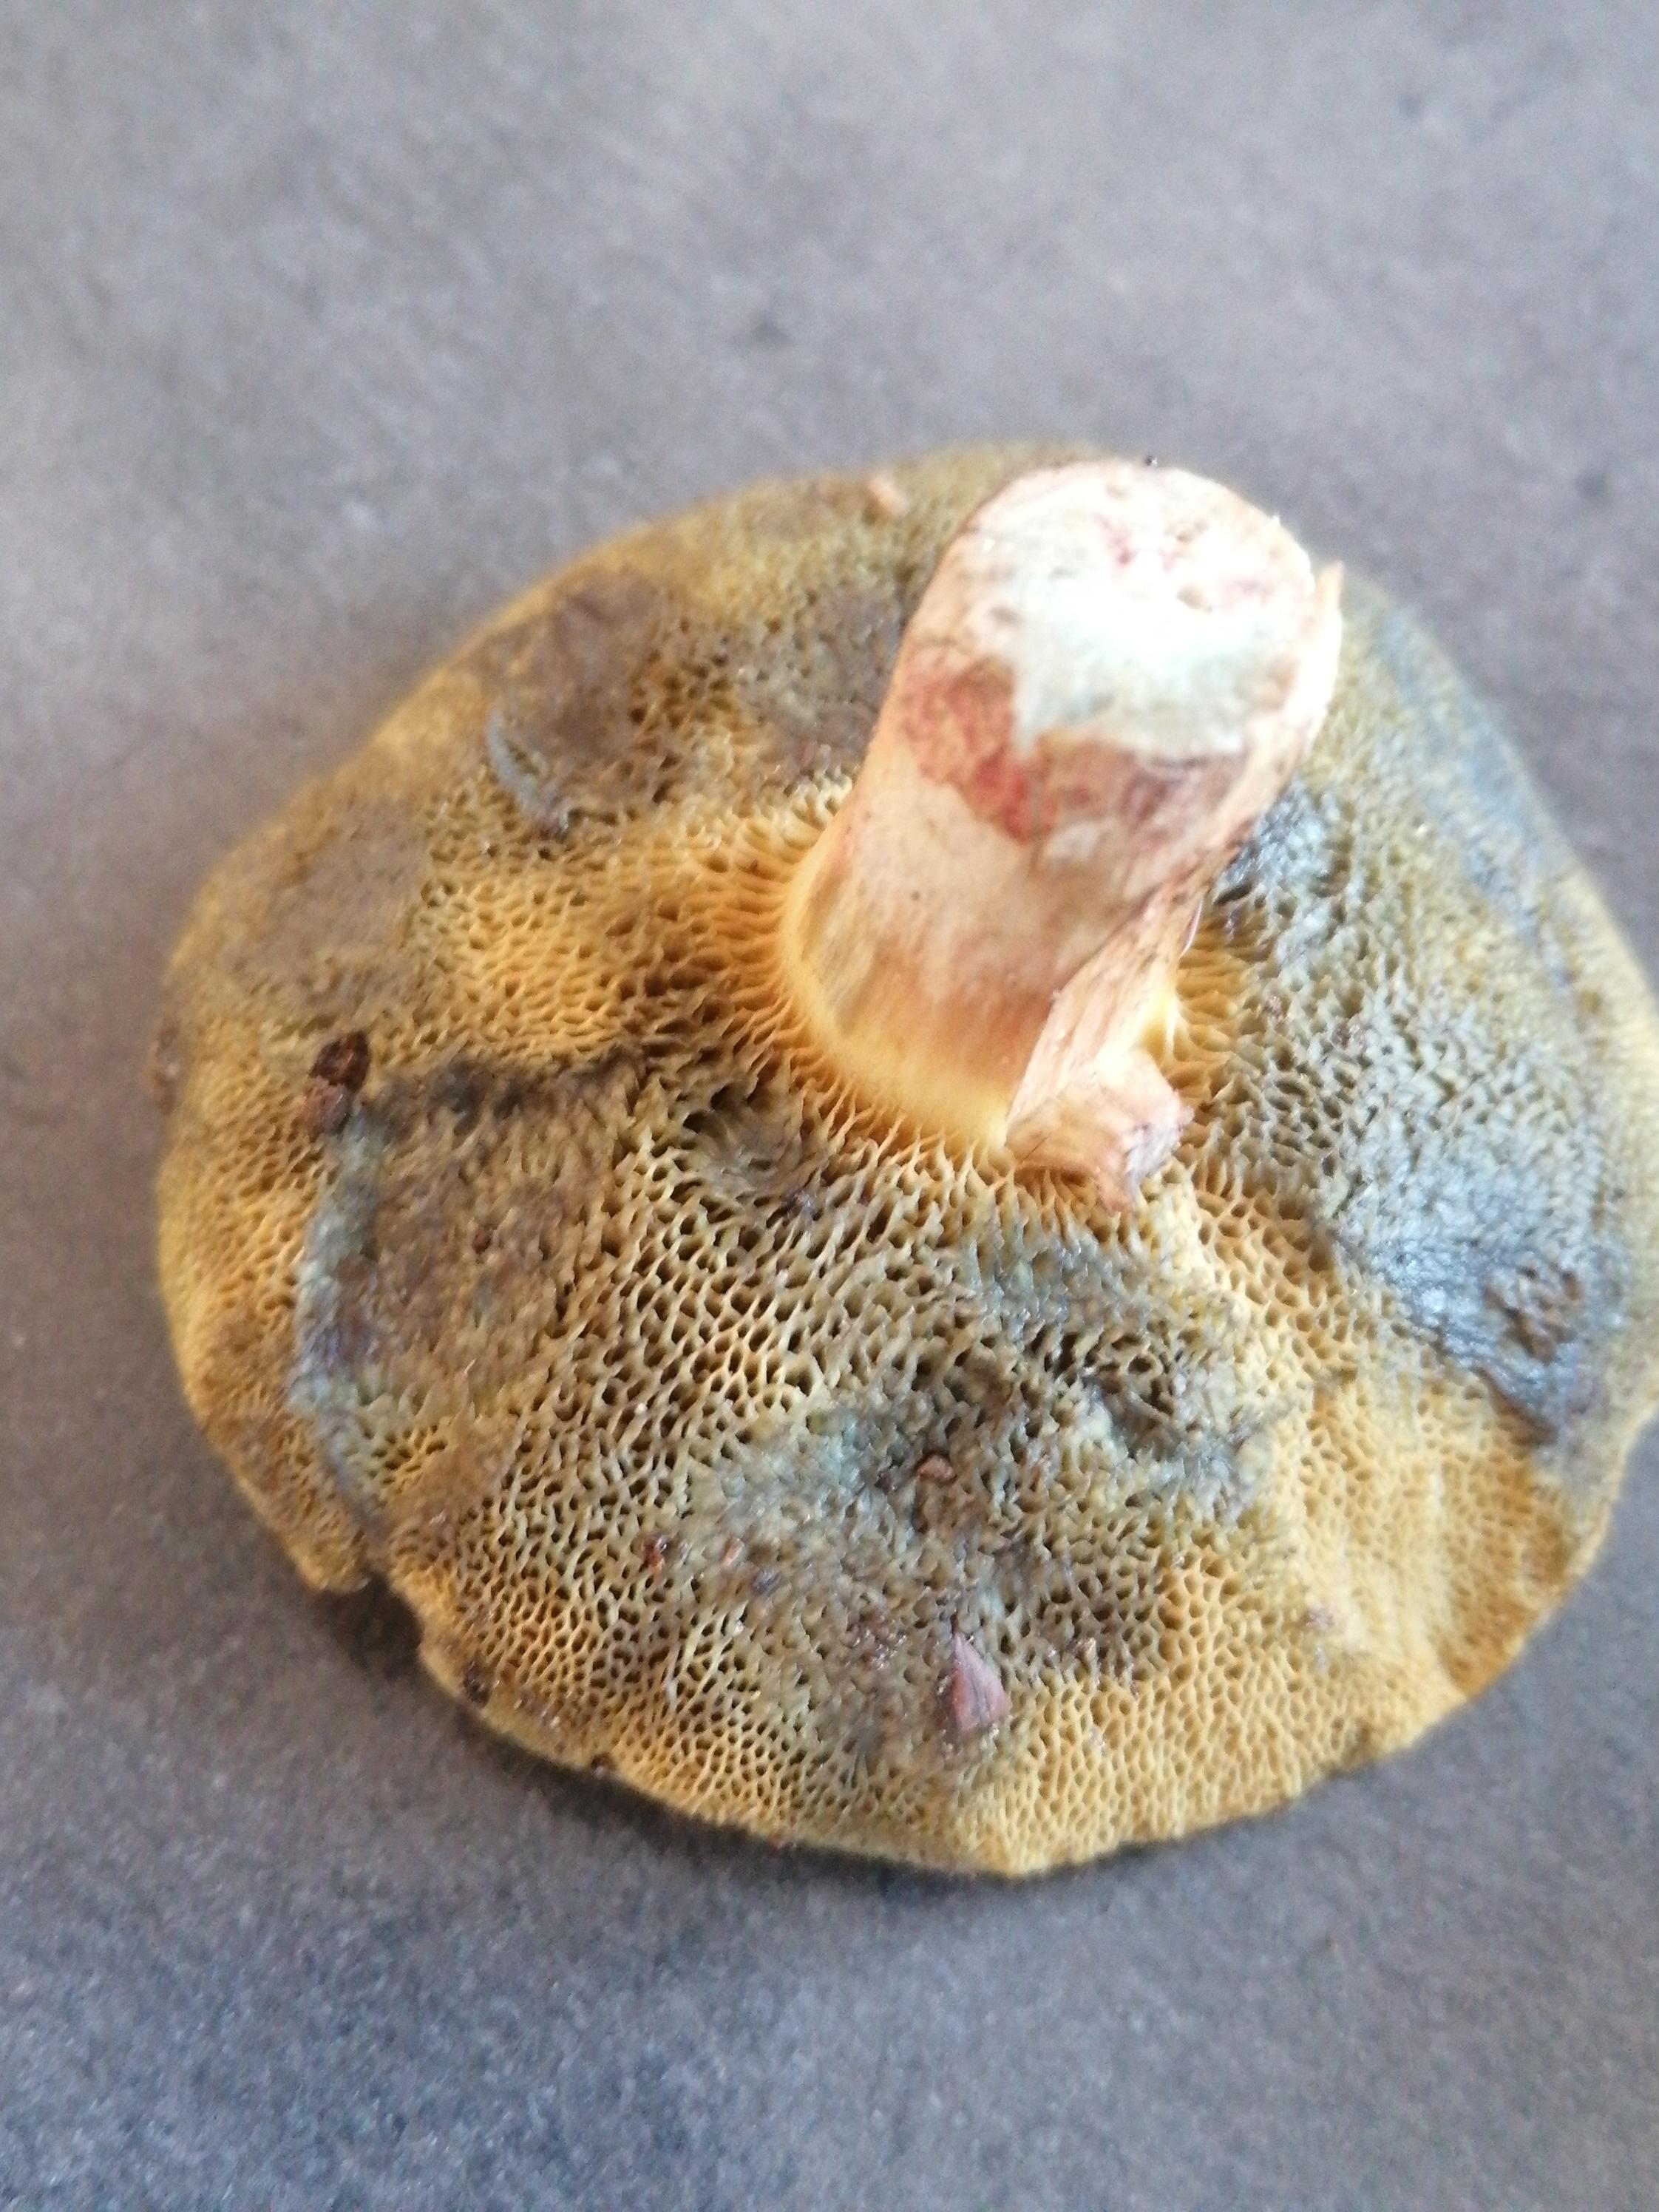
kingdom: Fungi
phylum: Basidiomycota
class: Agaricomycetes
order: Boletales
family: Boletaceae
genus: Xerocomellus
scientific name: Xerocomellus
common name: dværgrørhat
